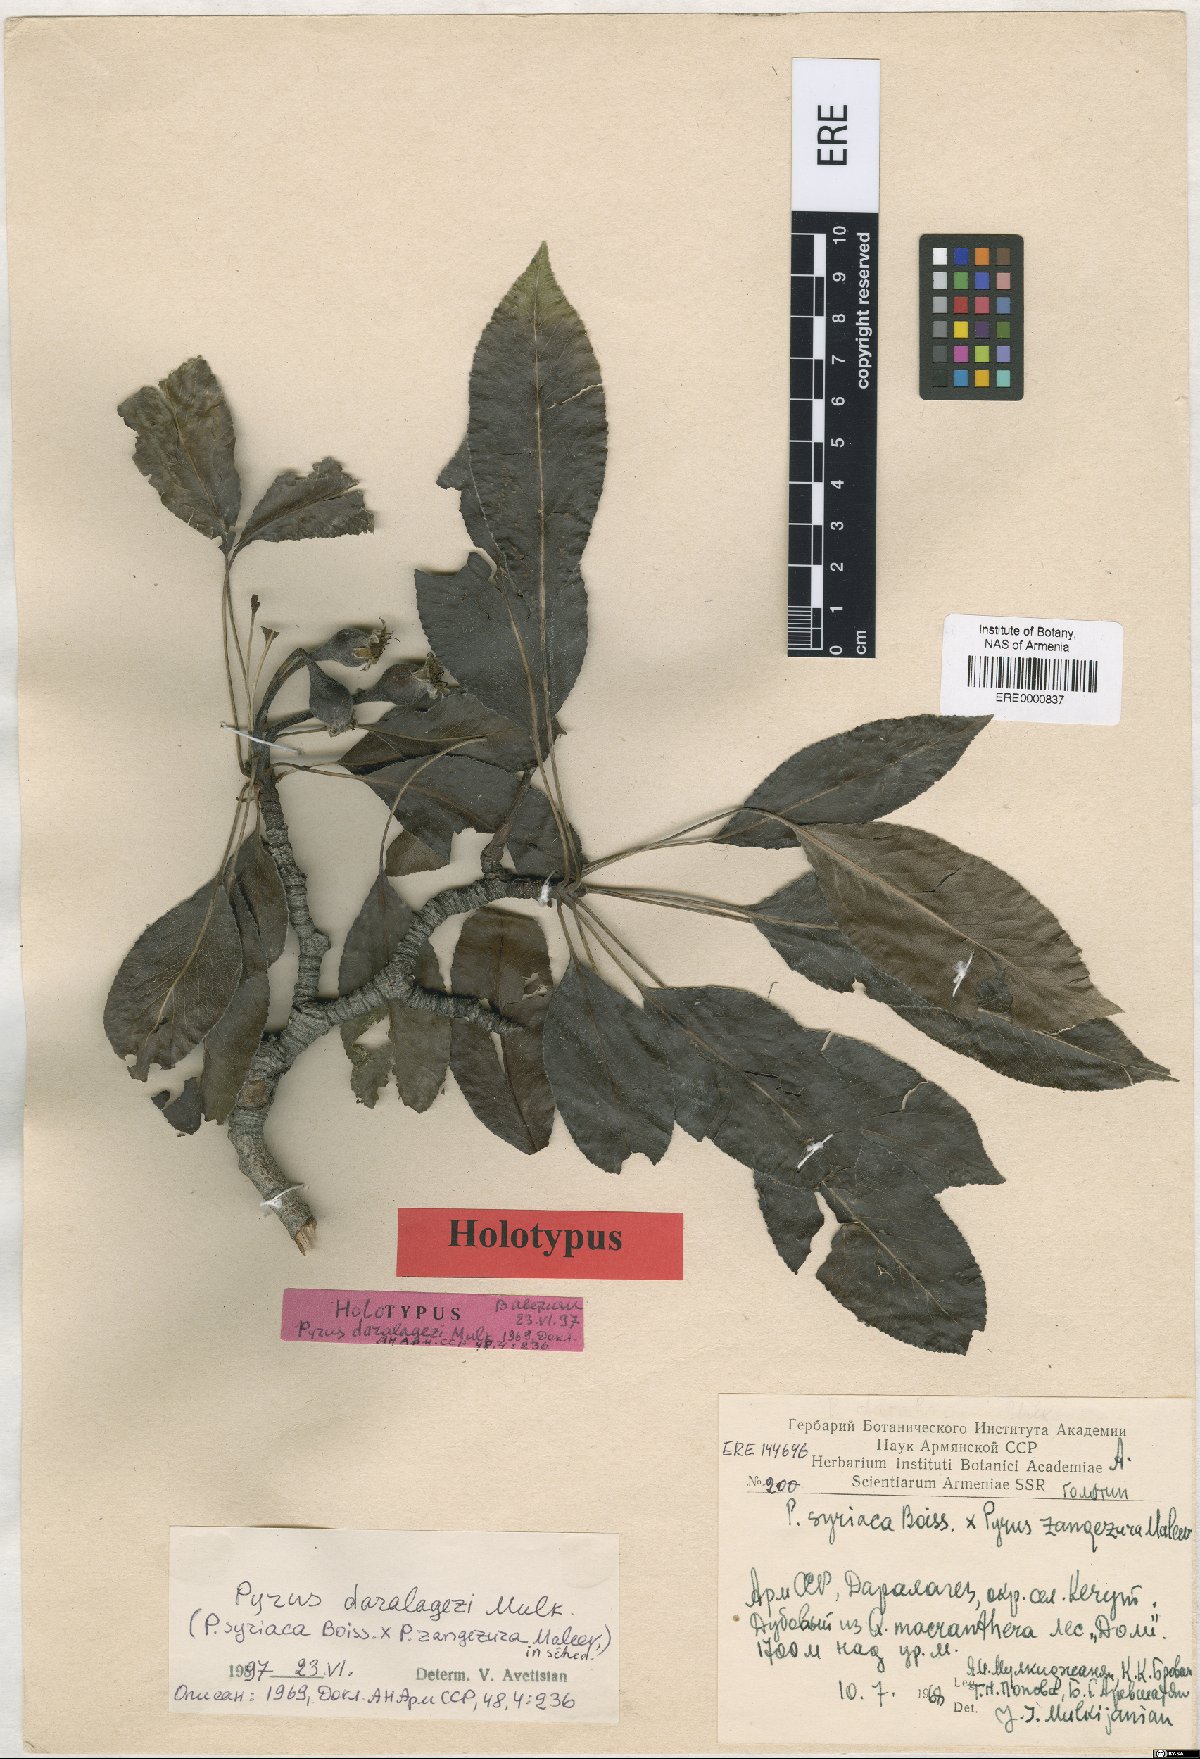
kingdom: Plantae
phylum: Tracheophyta
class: Magnoliopsida
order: Rosales
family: Rosaceae
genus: Pyrus
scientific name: Pyrus daralagezi
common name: Daralagezian pear
